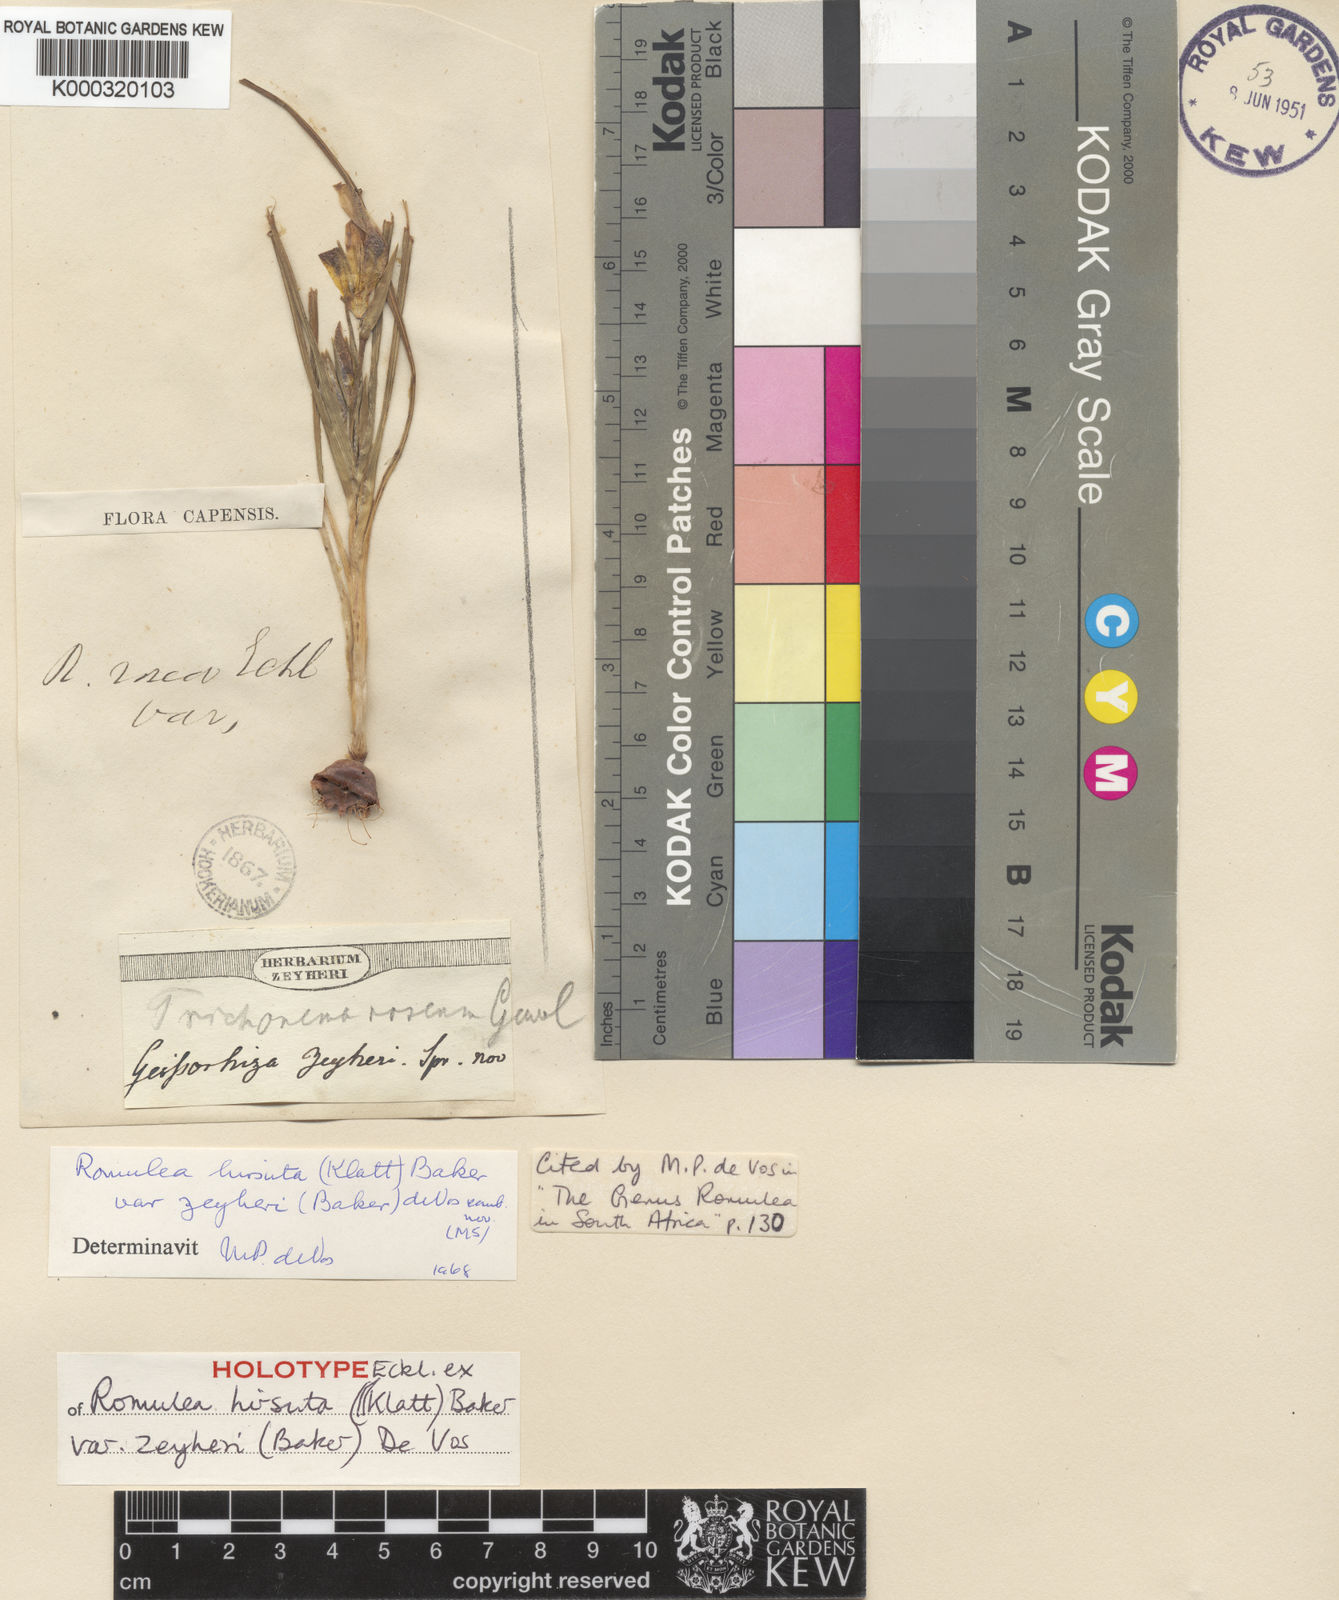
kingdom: Plantae
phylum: Tracheophyta
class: Liliopsida
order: Asparagales
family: Iridaceae
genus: Romulea
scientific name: Romulea hirsuta
